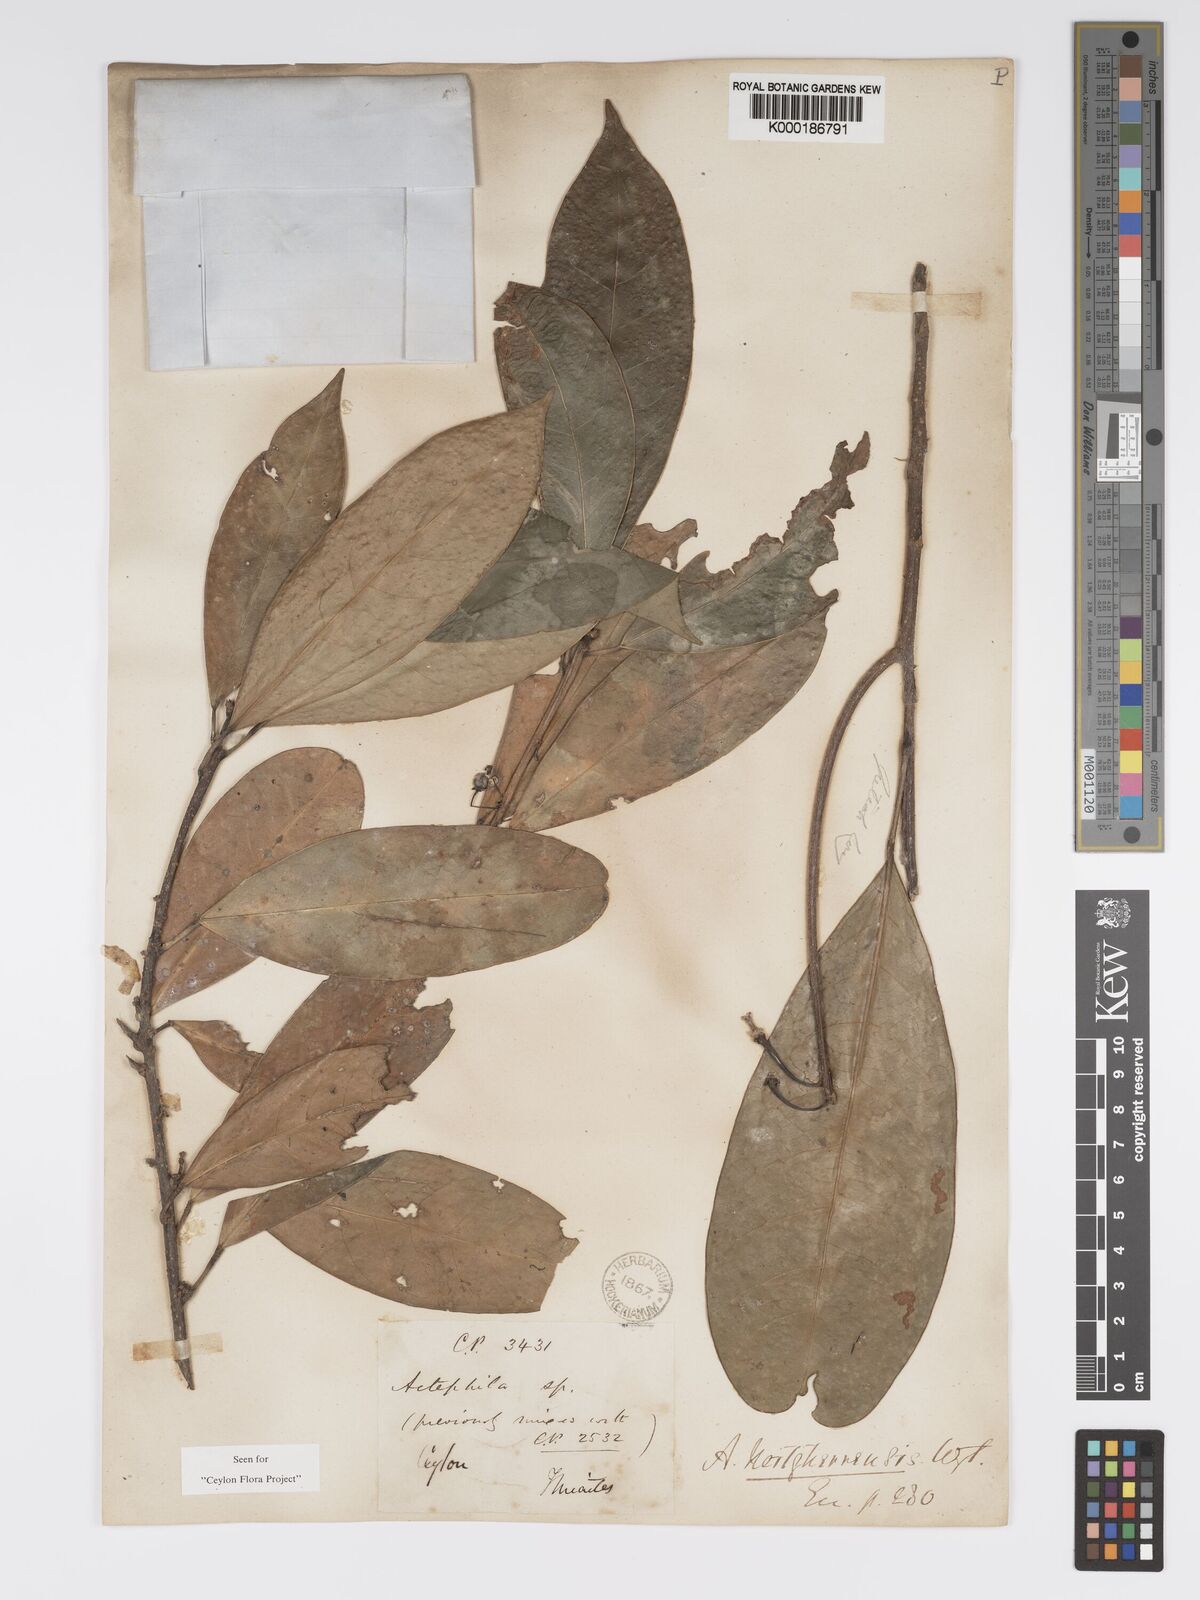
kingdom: Plantae
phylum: Tracheophyta
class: Magnoliopsida
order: Malpighiales
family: Phyllanthaceae
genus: Actephila
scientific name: Actephila excelsa
